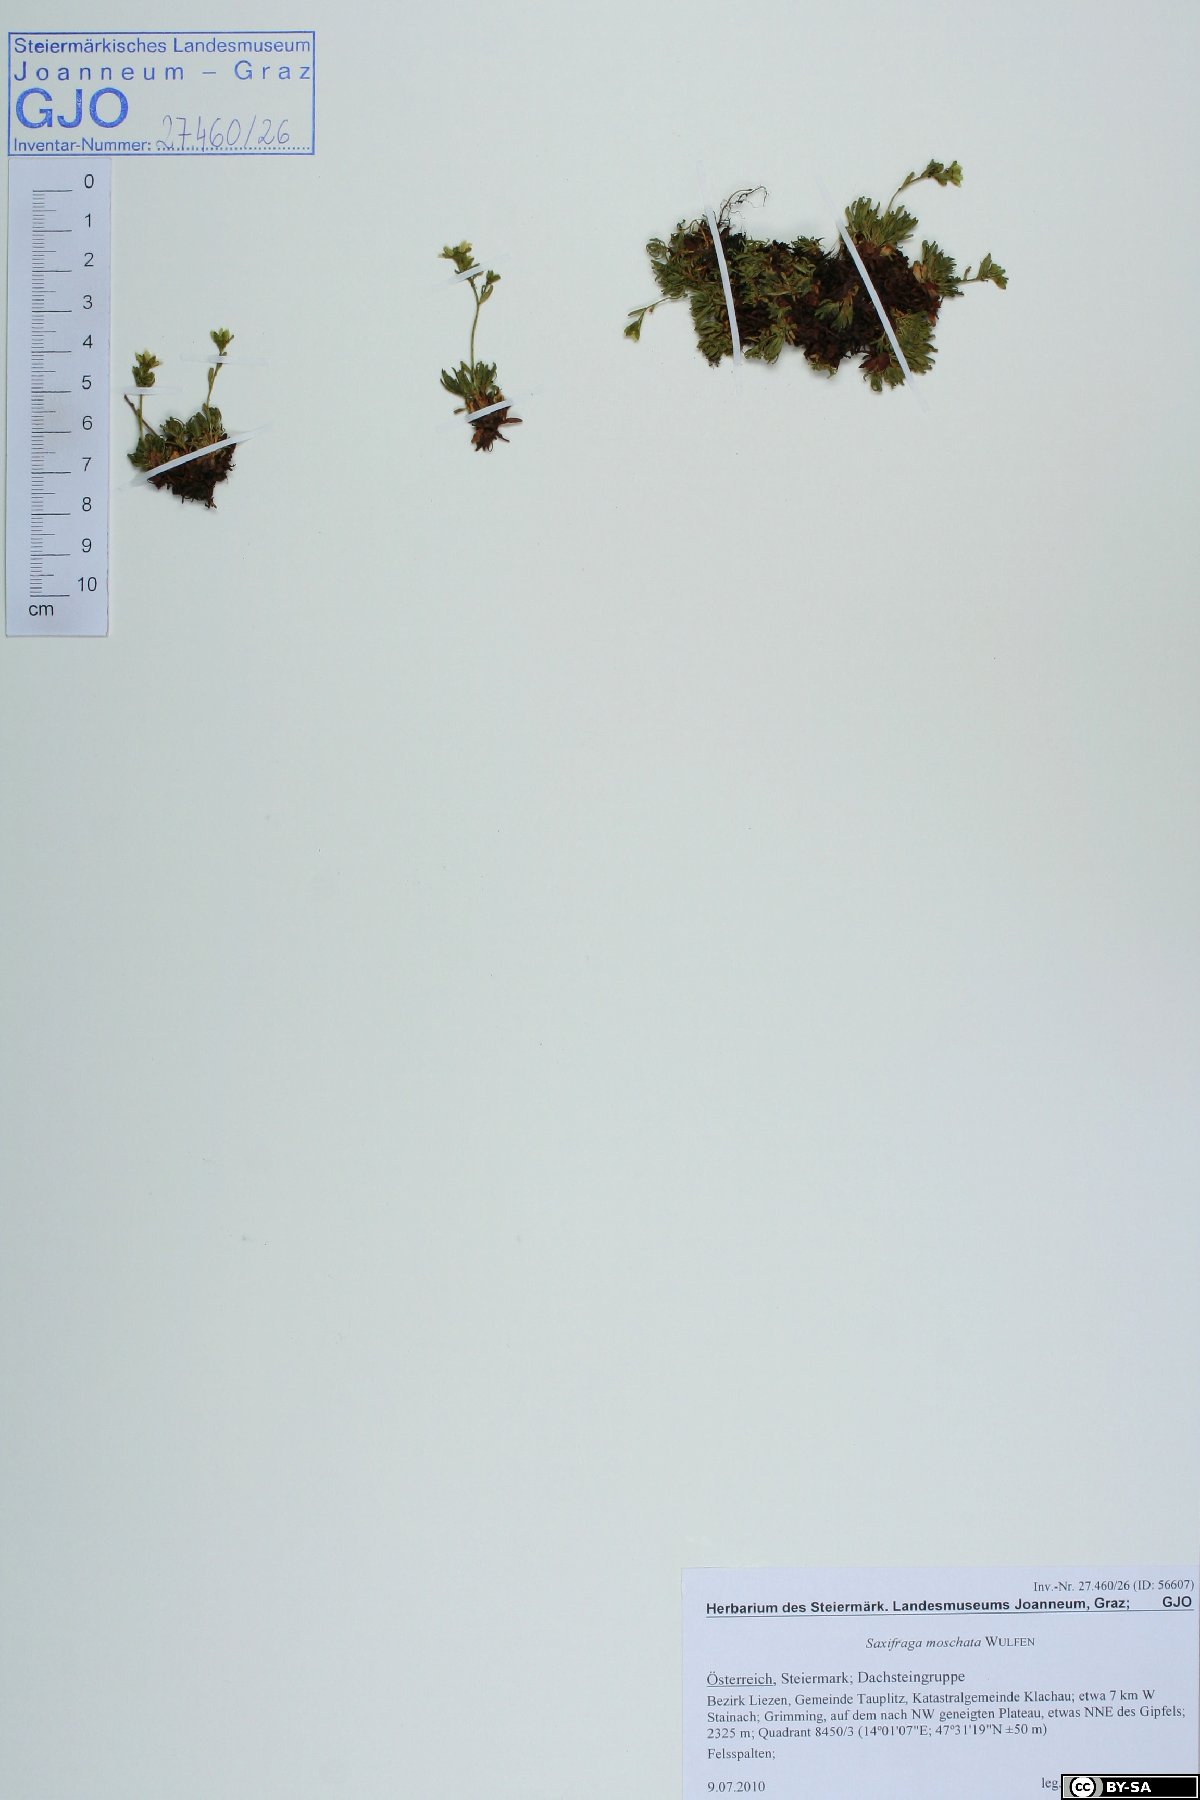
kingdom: Plantae
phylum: Tracheophyta
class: Magnoliopsida
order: Saxifragales
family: Saxifragaceae
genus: Saxifraga
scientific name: Saxifraga moschata
